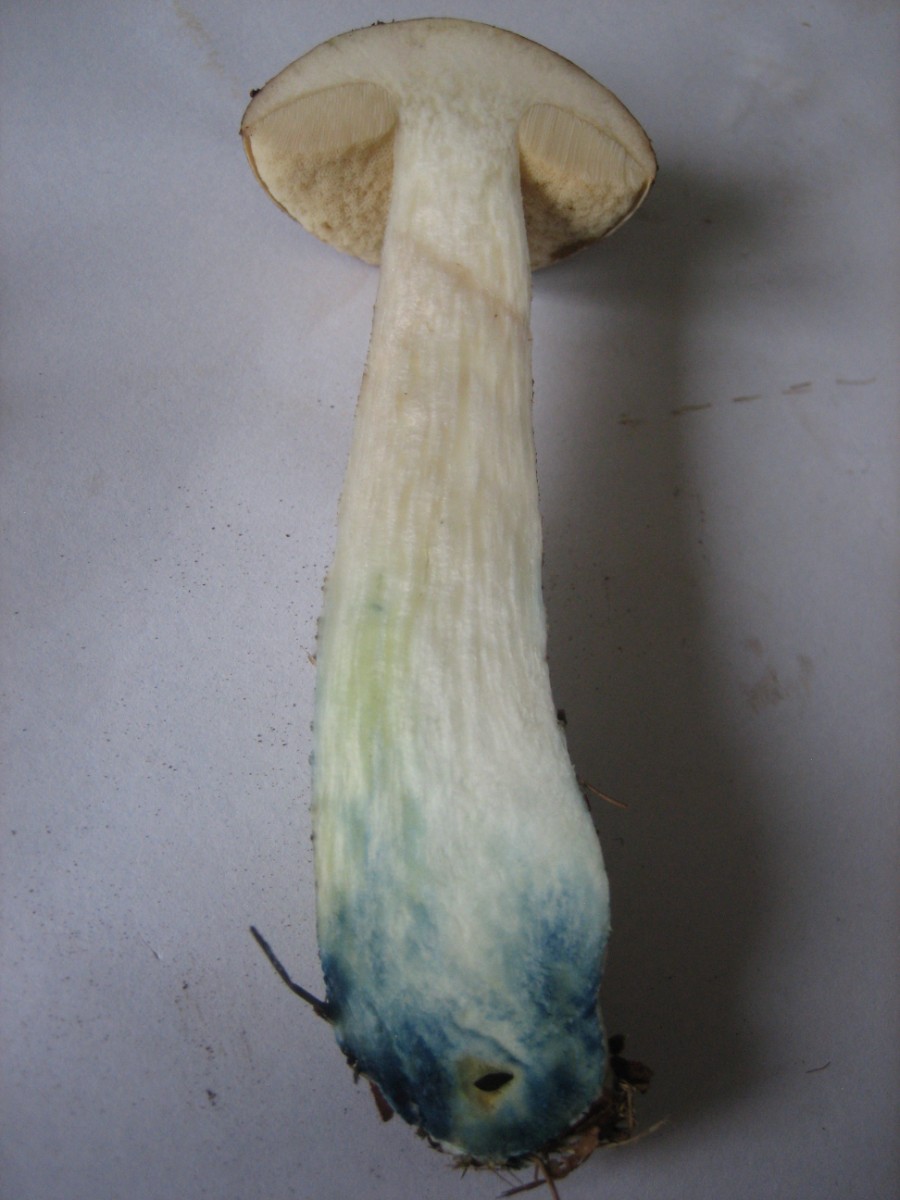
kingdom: Fungi
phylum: Basidiomycota
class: Agaricomycetes
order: Boletales
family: Boletaceae
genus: Leccinum
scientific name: Leccinum variicolor
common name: flammet skælrørhat
